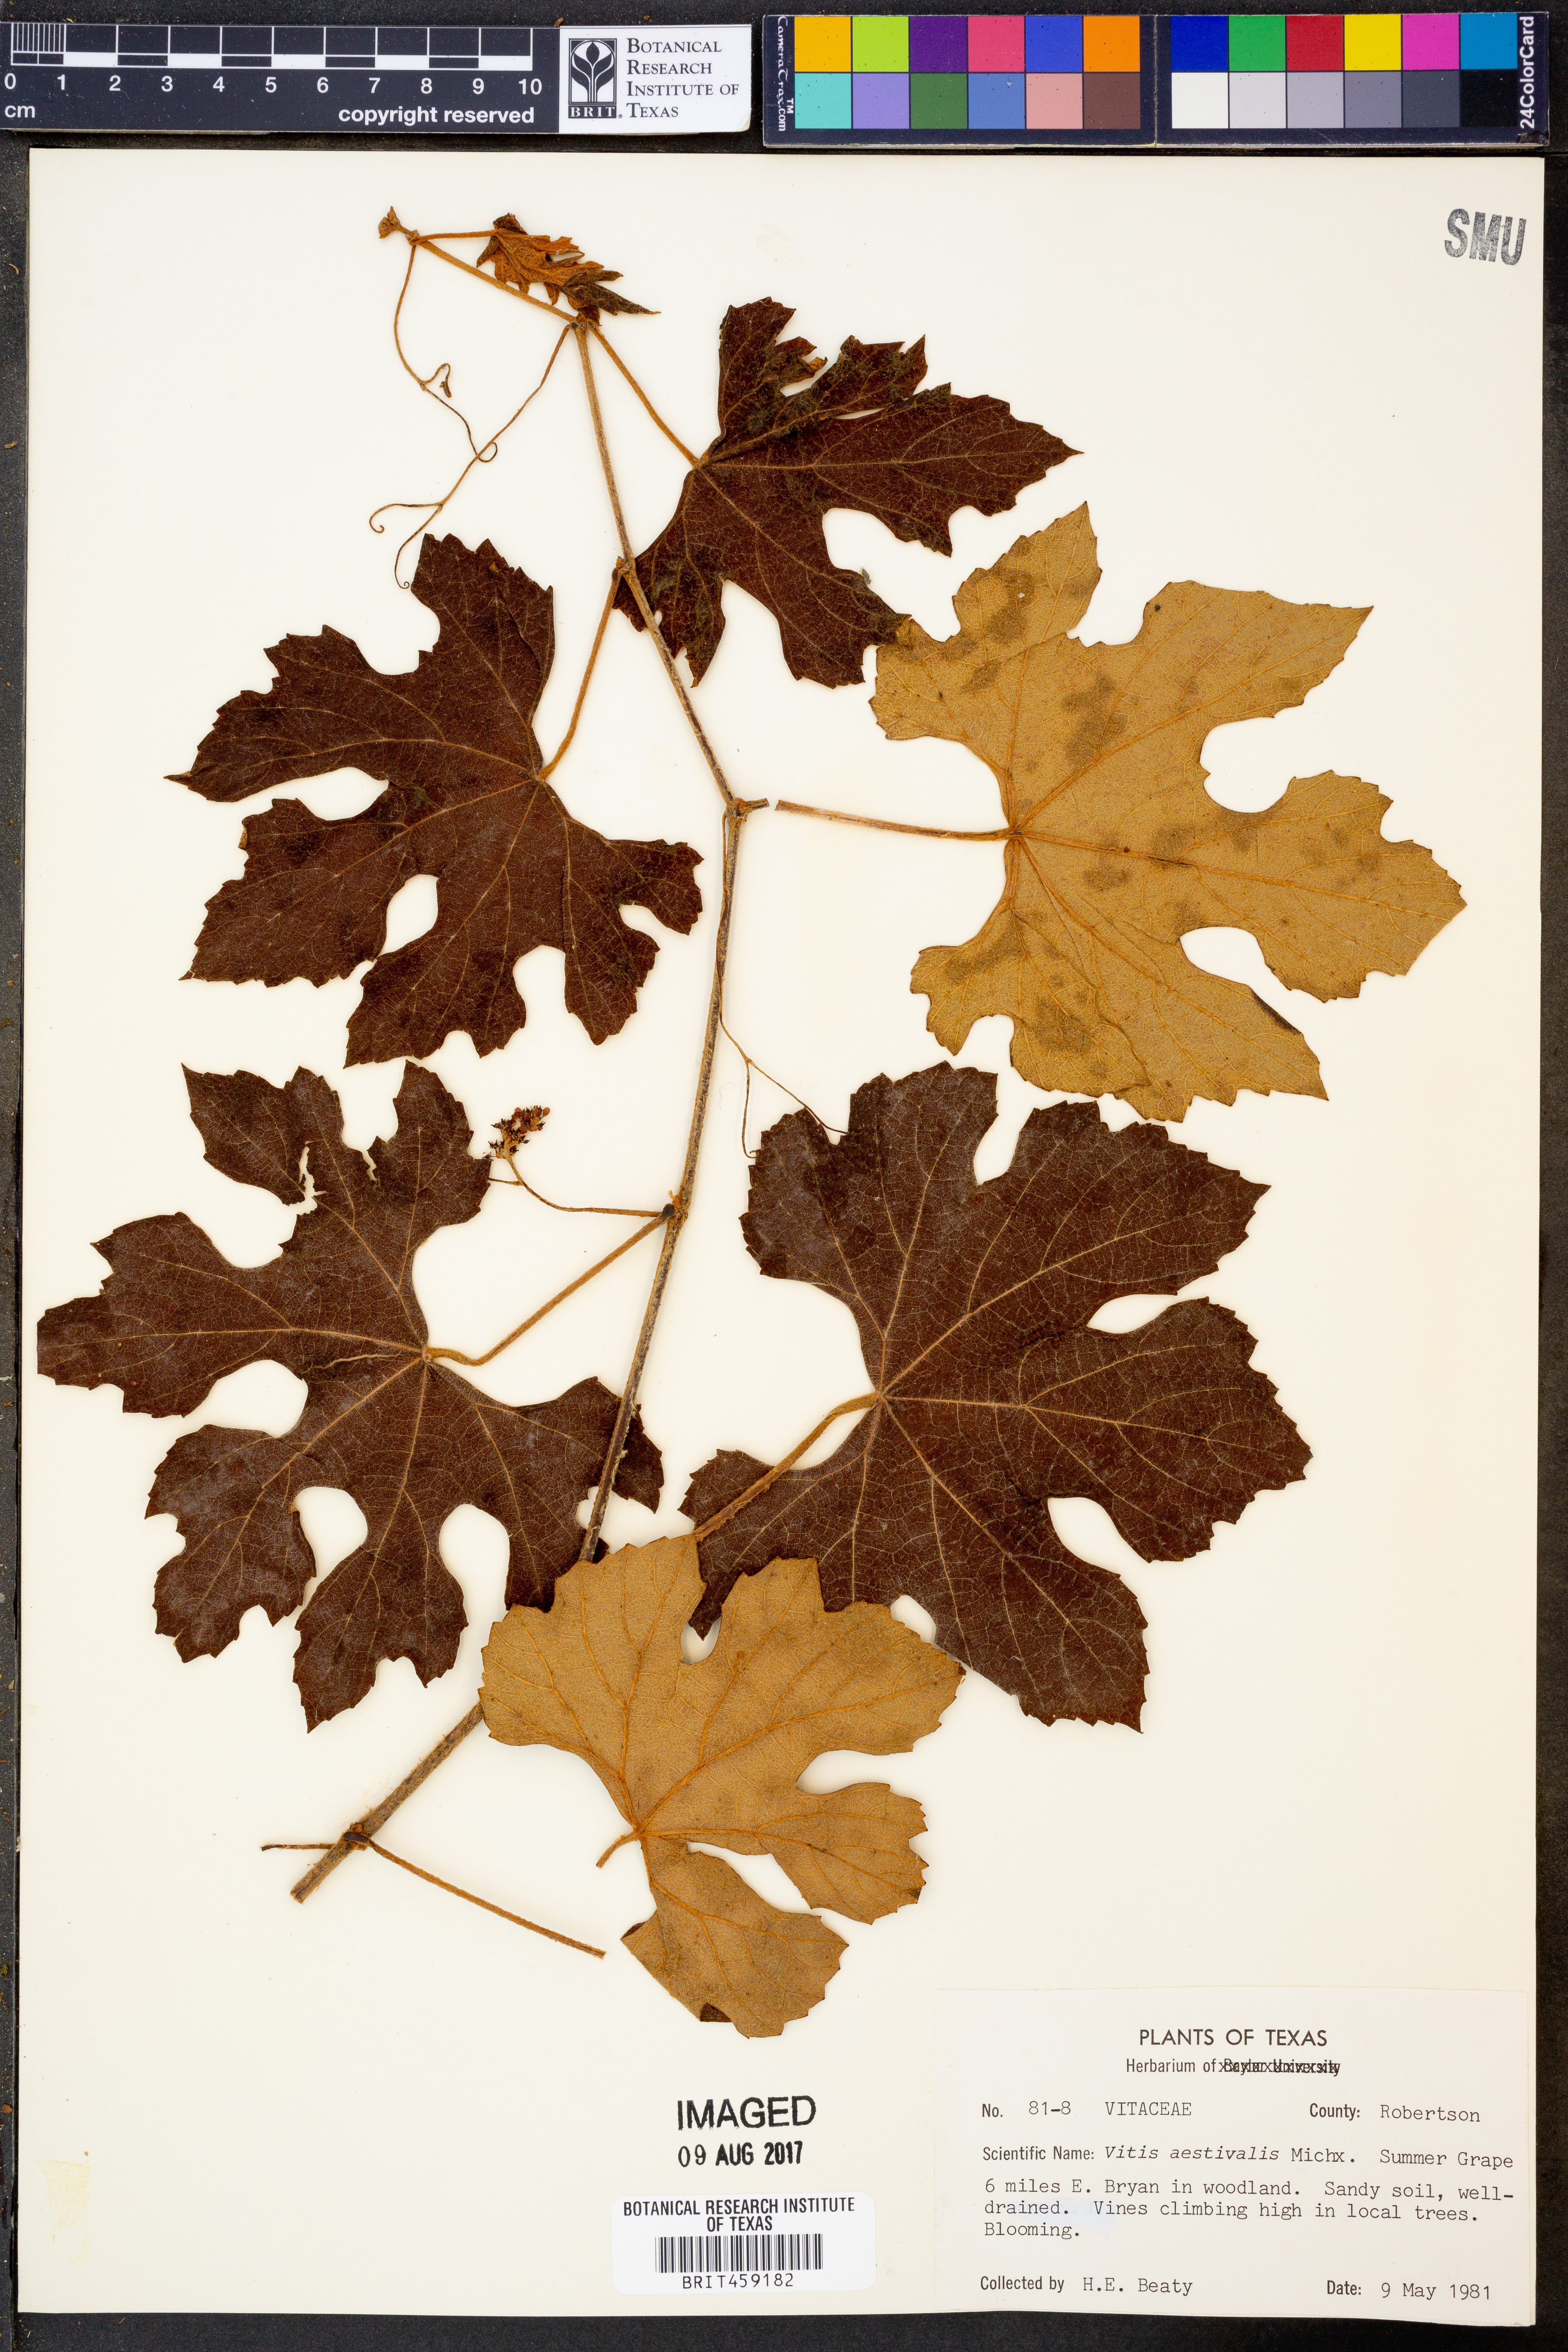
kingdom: Plantae
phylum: Tracheophyta
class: Magnoliopsida
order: Vitales
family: Vitaceae
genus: Vitis
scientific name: Vitis aestivalis
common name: Pigeon grape
